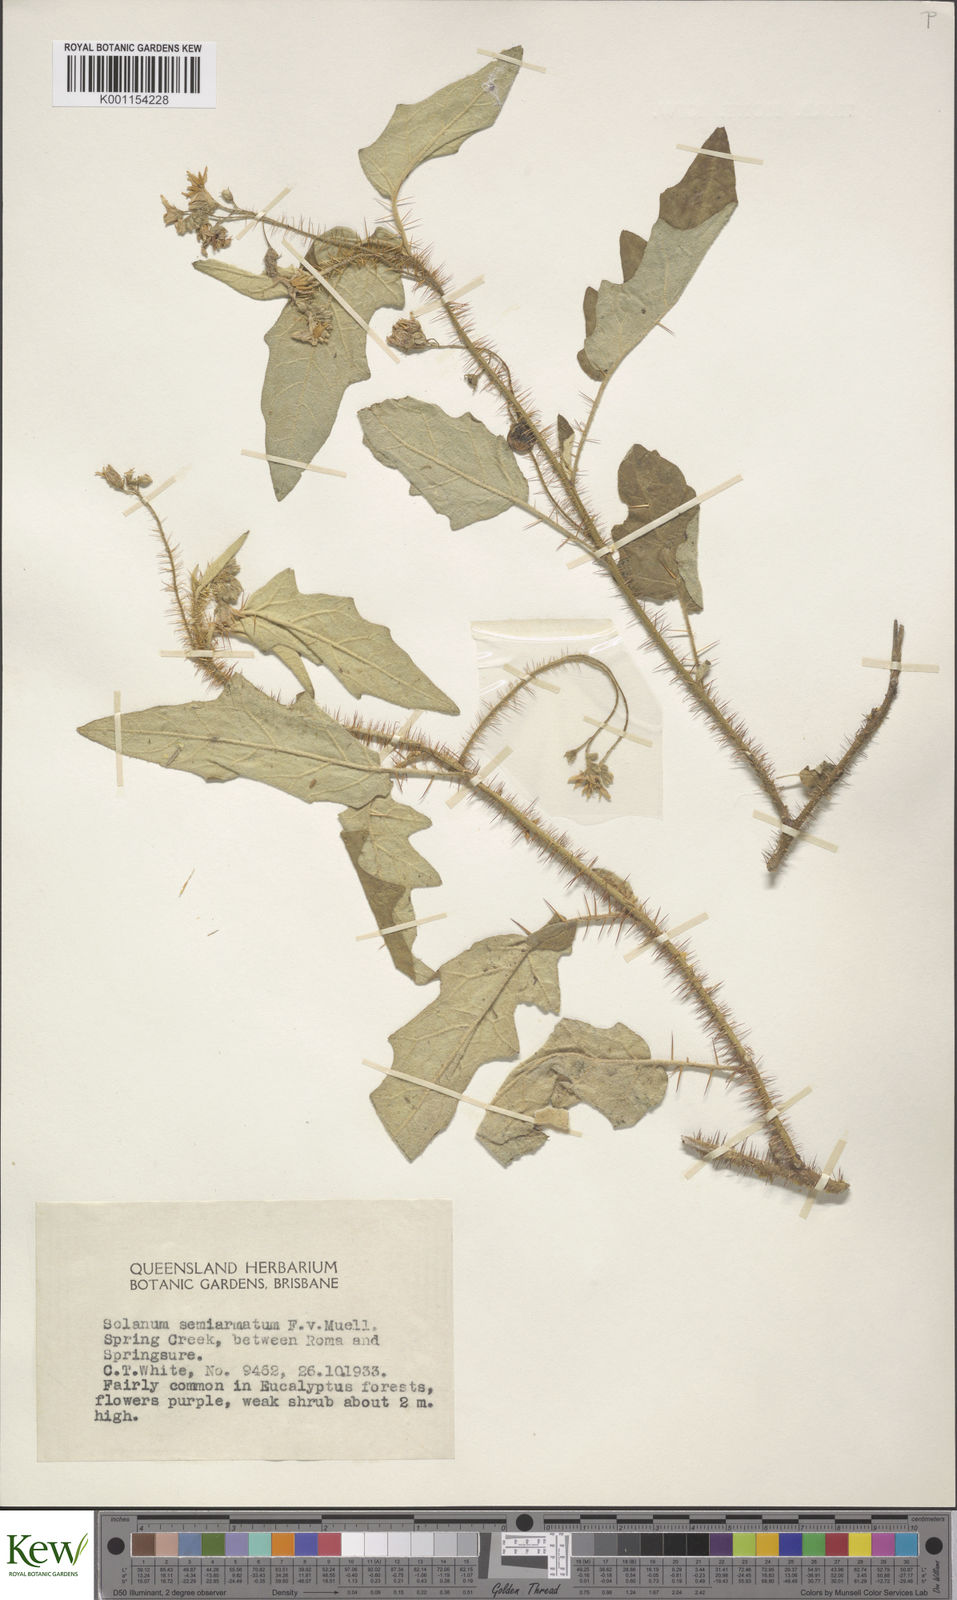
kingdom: Plantae
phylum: Tracheophyta
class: Magnoliopsida
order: Solanales
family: Solanaceae
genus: Solanum
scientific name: Solanum semiarmatum
